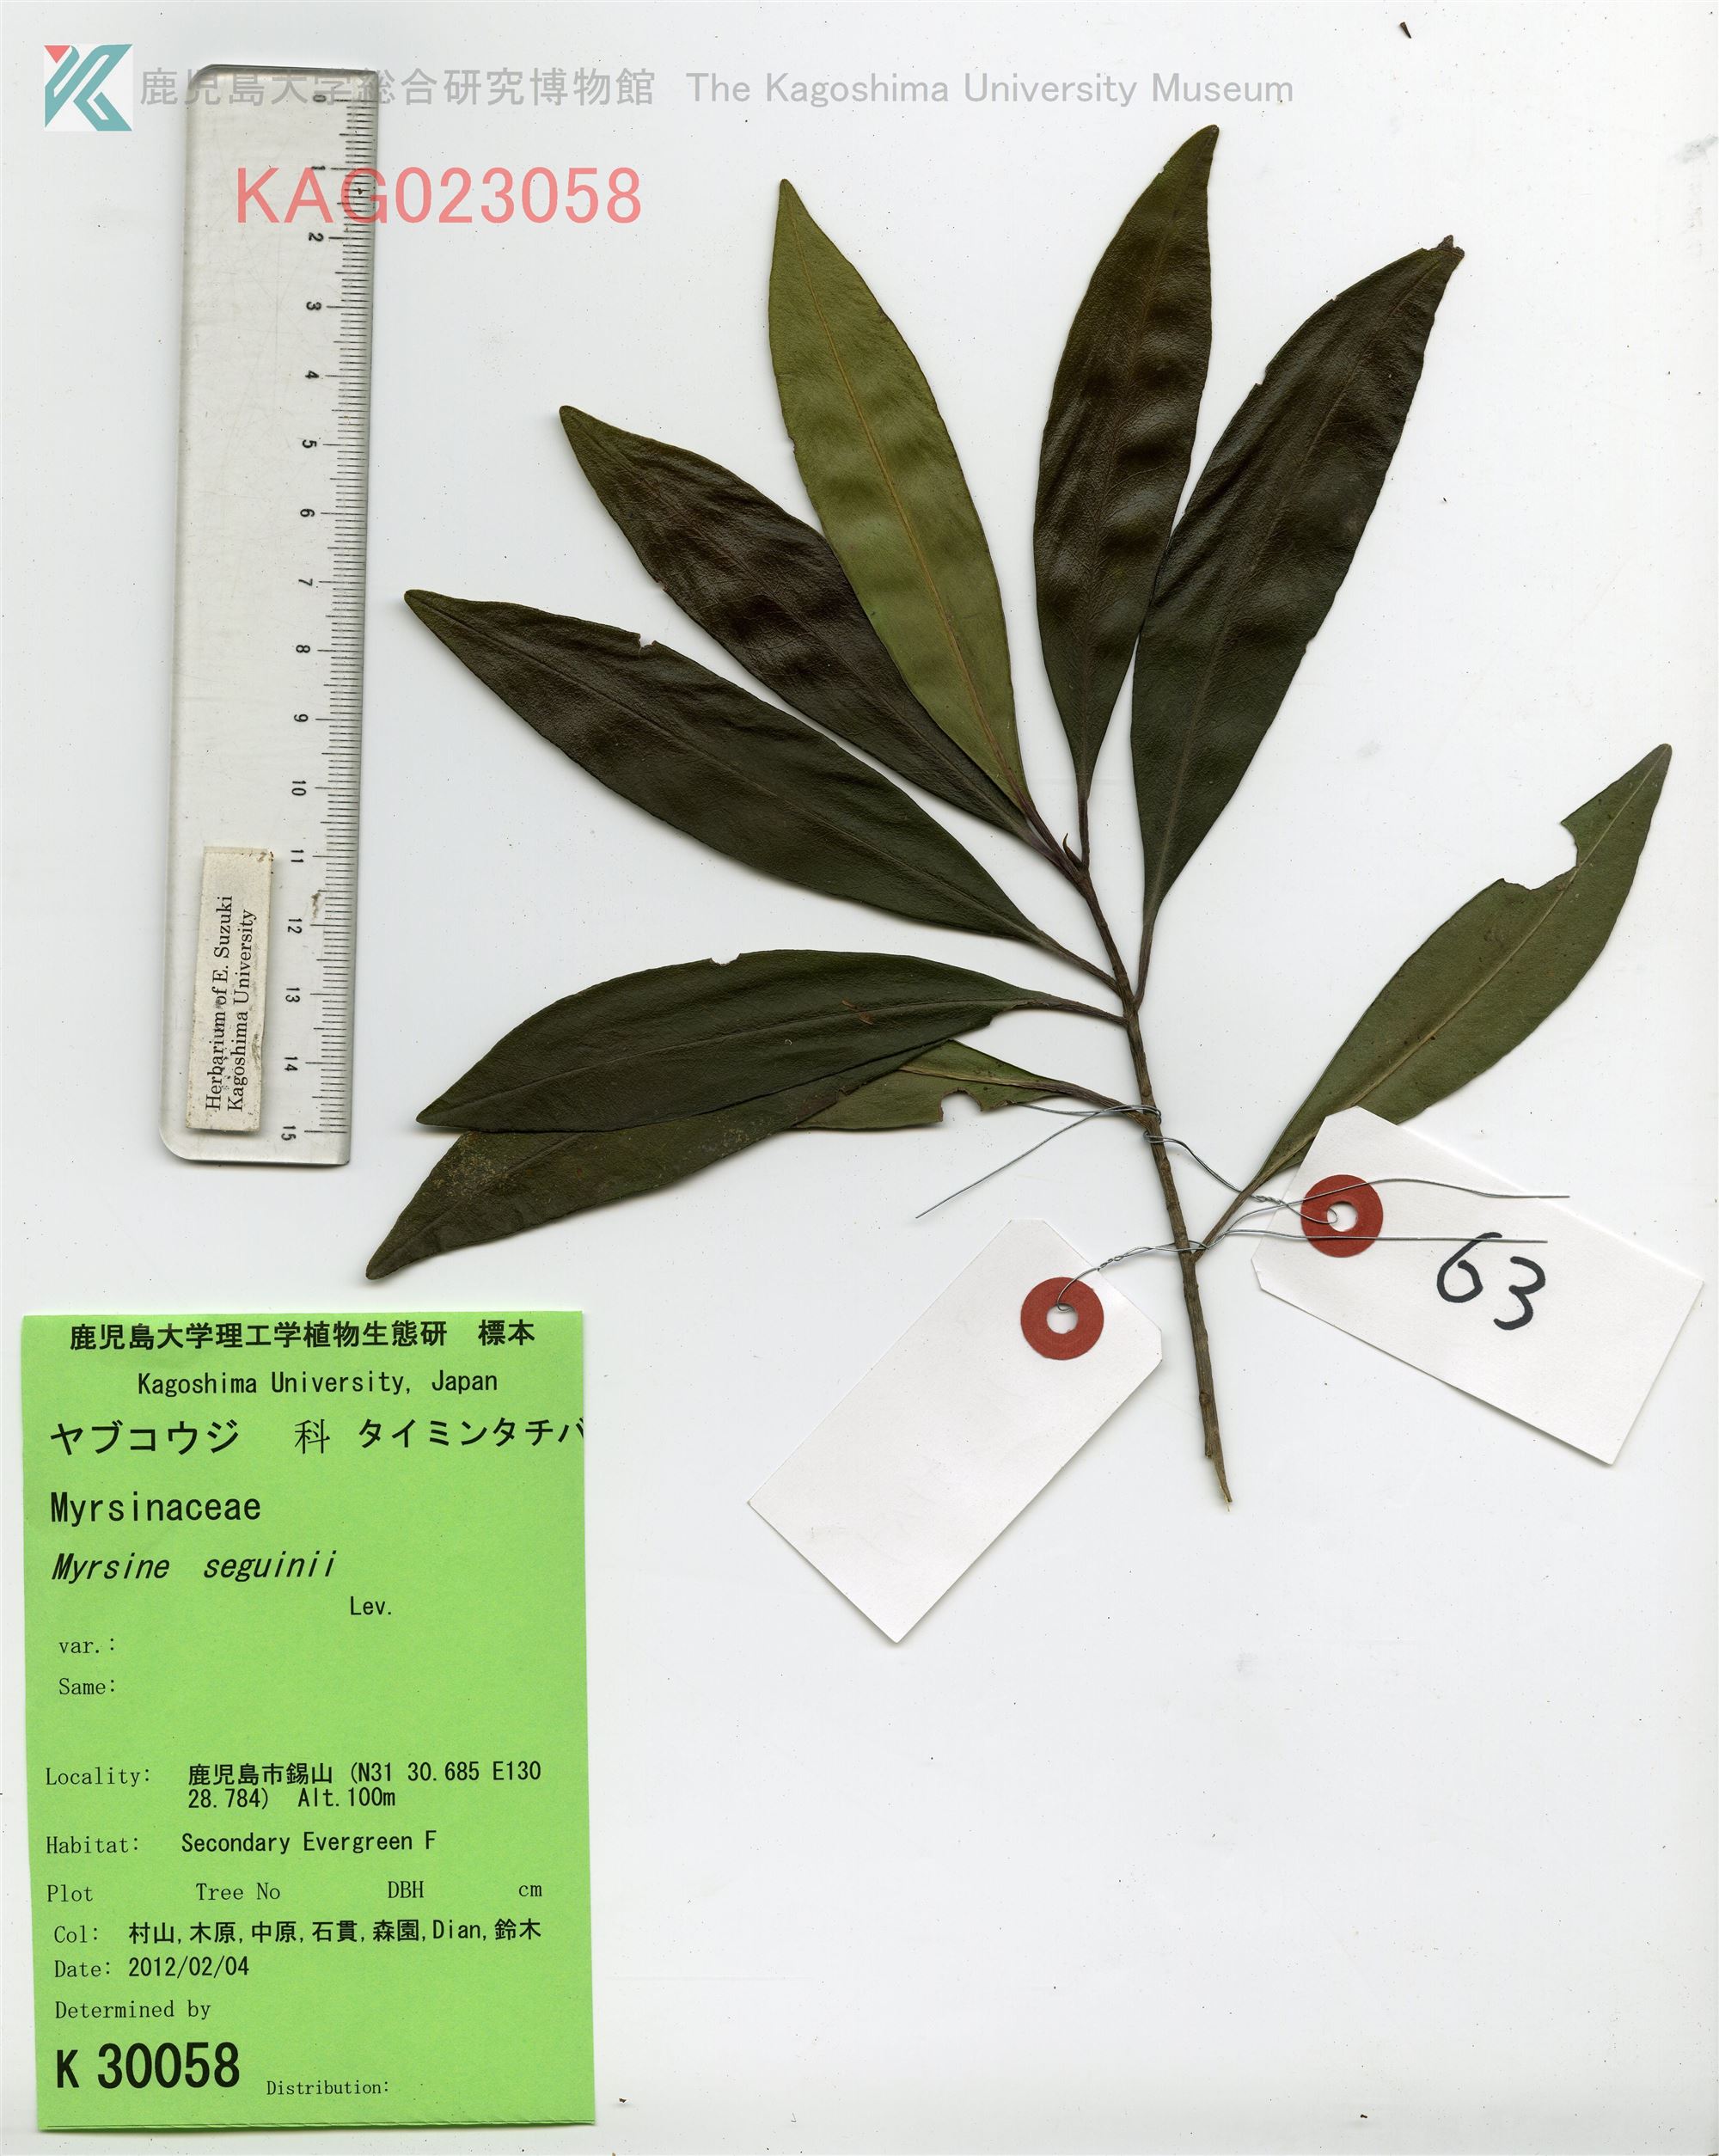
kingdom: Plantae
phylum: Tracheophyta
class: Magnoliopsida
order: Ericales
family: Primulaceae
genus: Myrsine
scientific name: Myrsine seguinii
